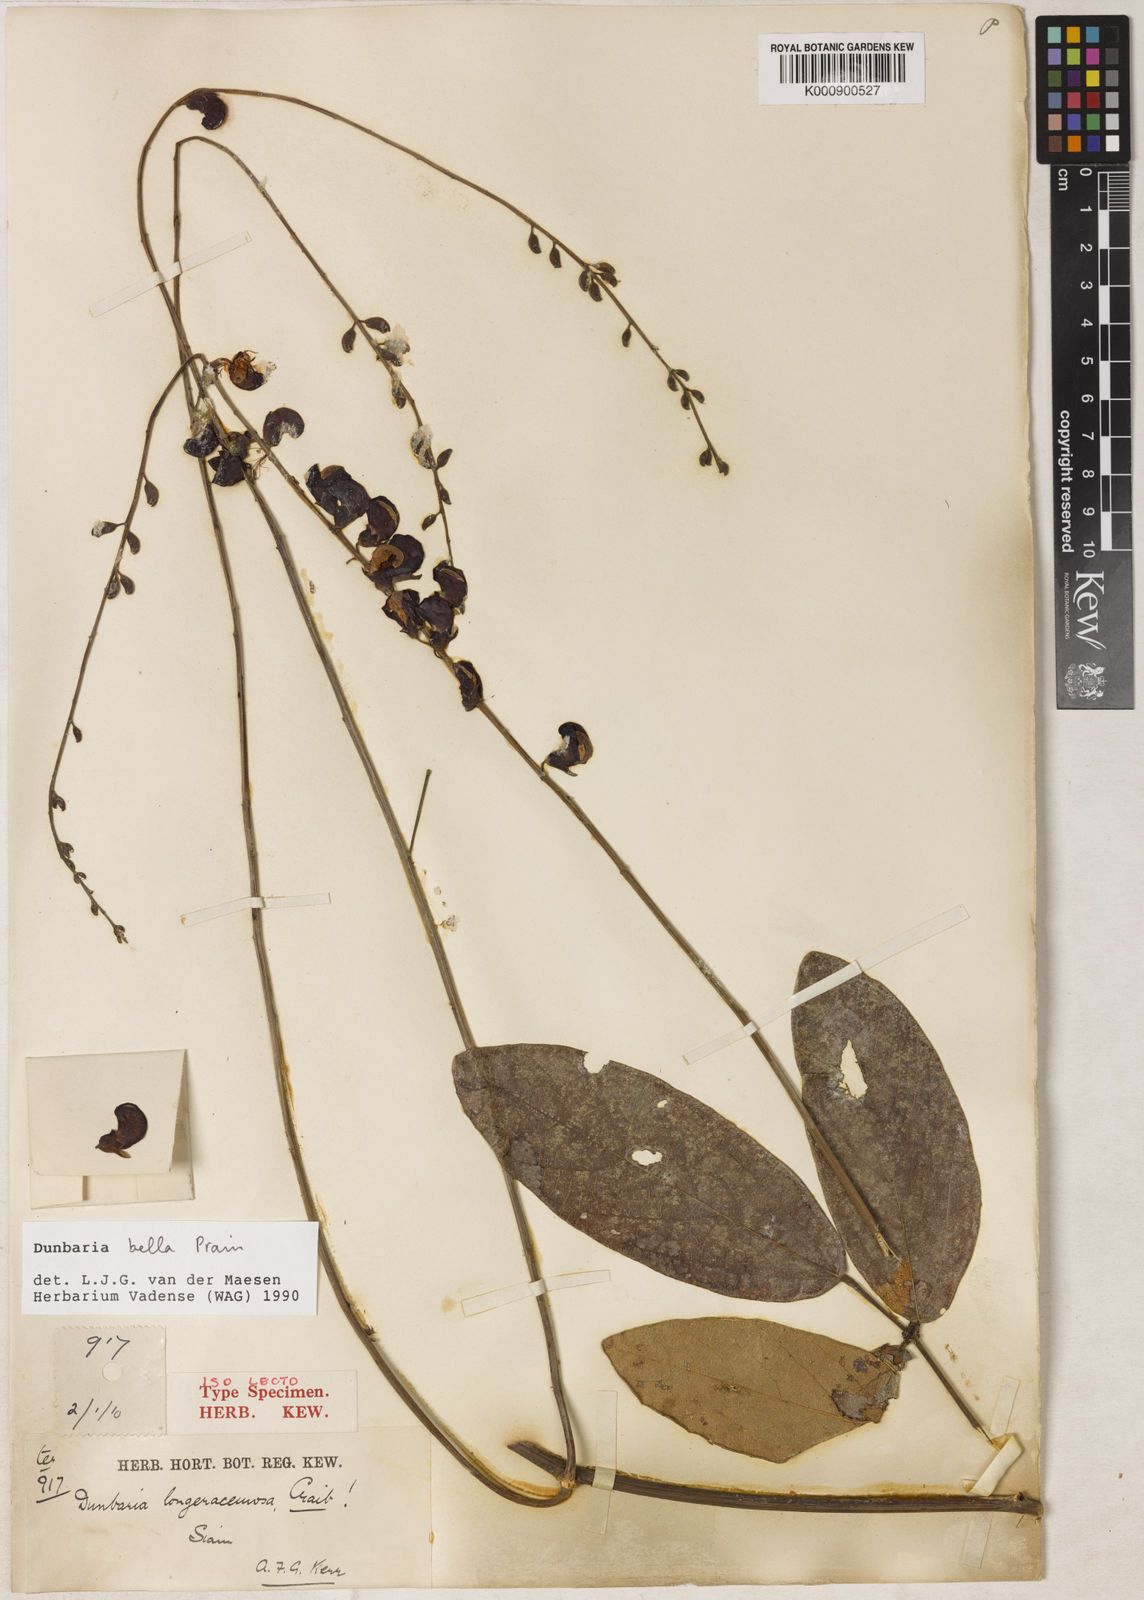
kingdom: Plantae
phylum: Tracheophyta
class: Magnoliopsida
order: Fabales
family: Fabaceae
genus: Dunbaria
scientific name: Dunbaria bella
